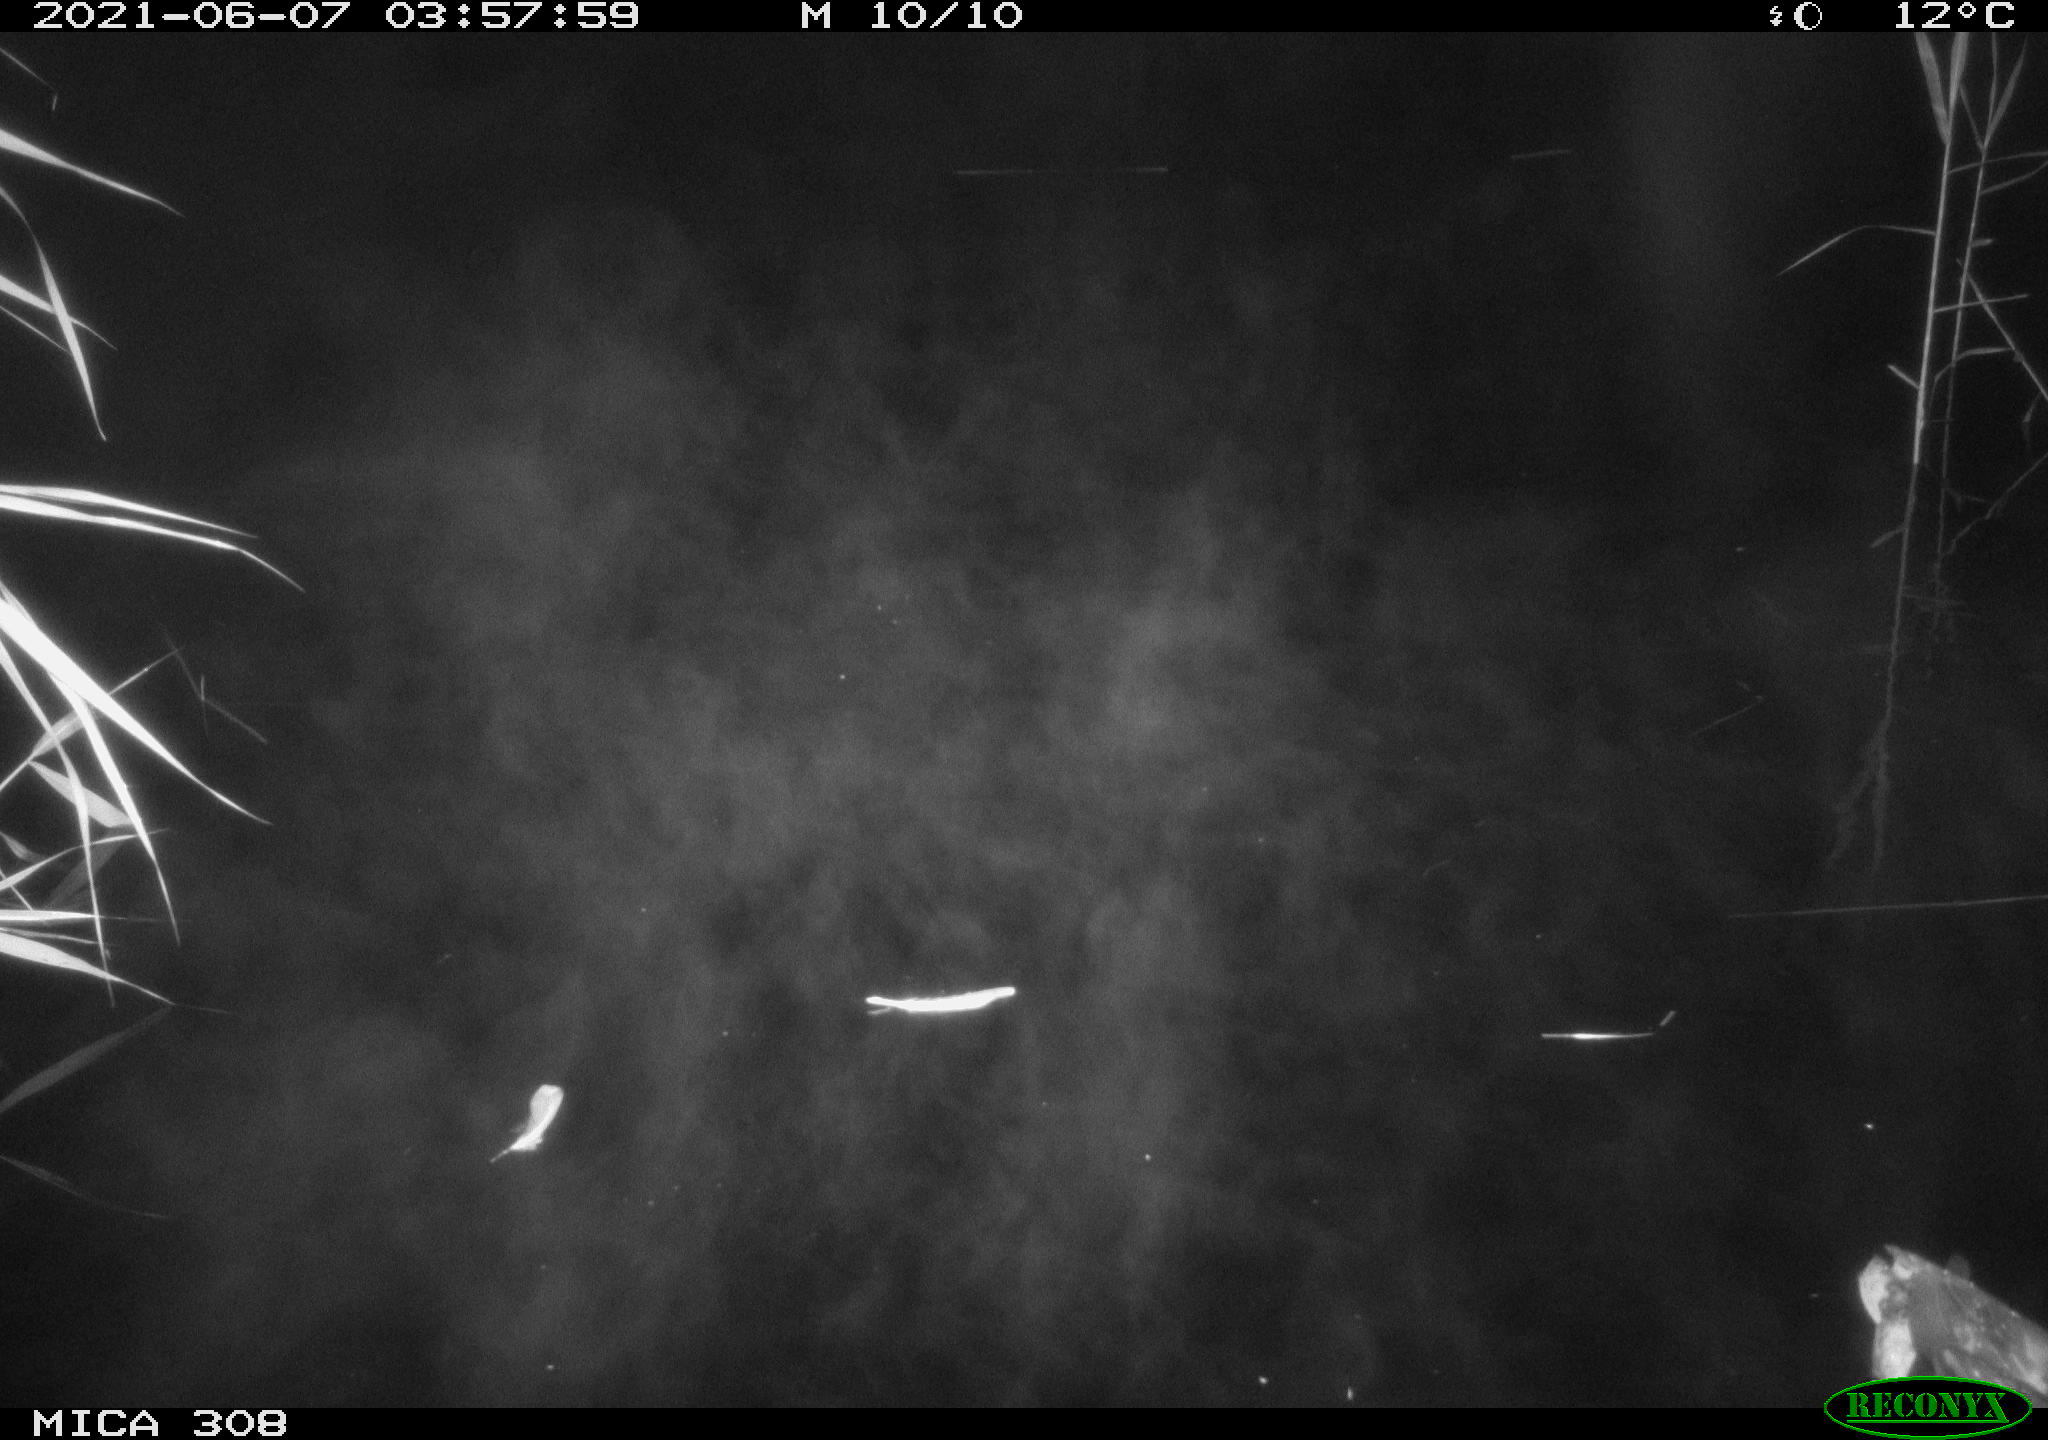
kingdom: Animalia
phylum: Chordata
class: Aves
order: Anseriformes
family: Anatidae
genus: Anas
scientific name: Anas platyrhynchos
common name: Mallard
